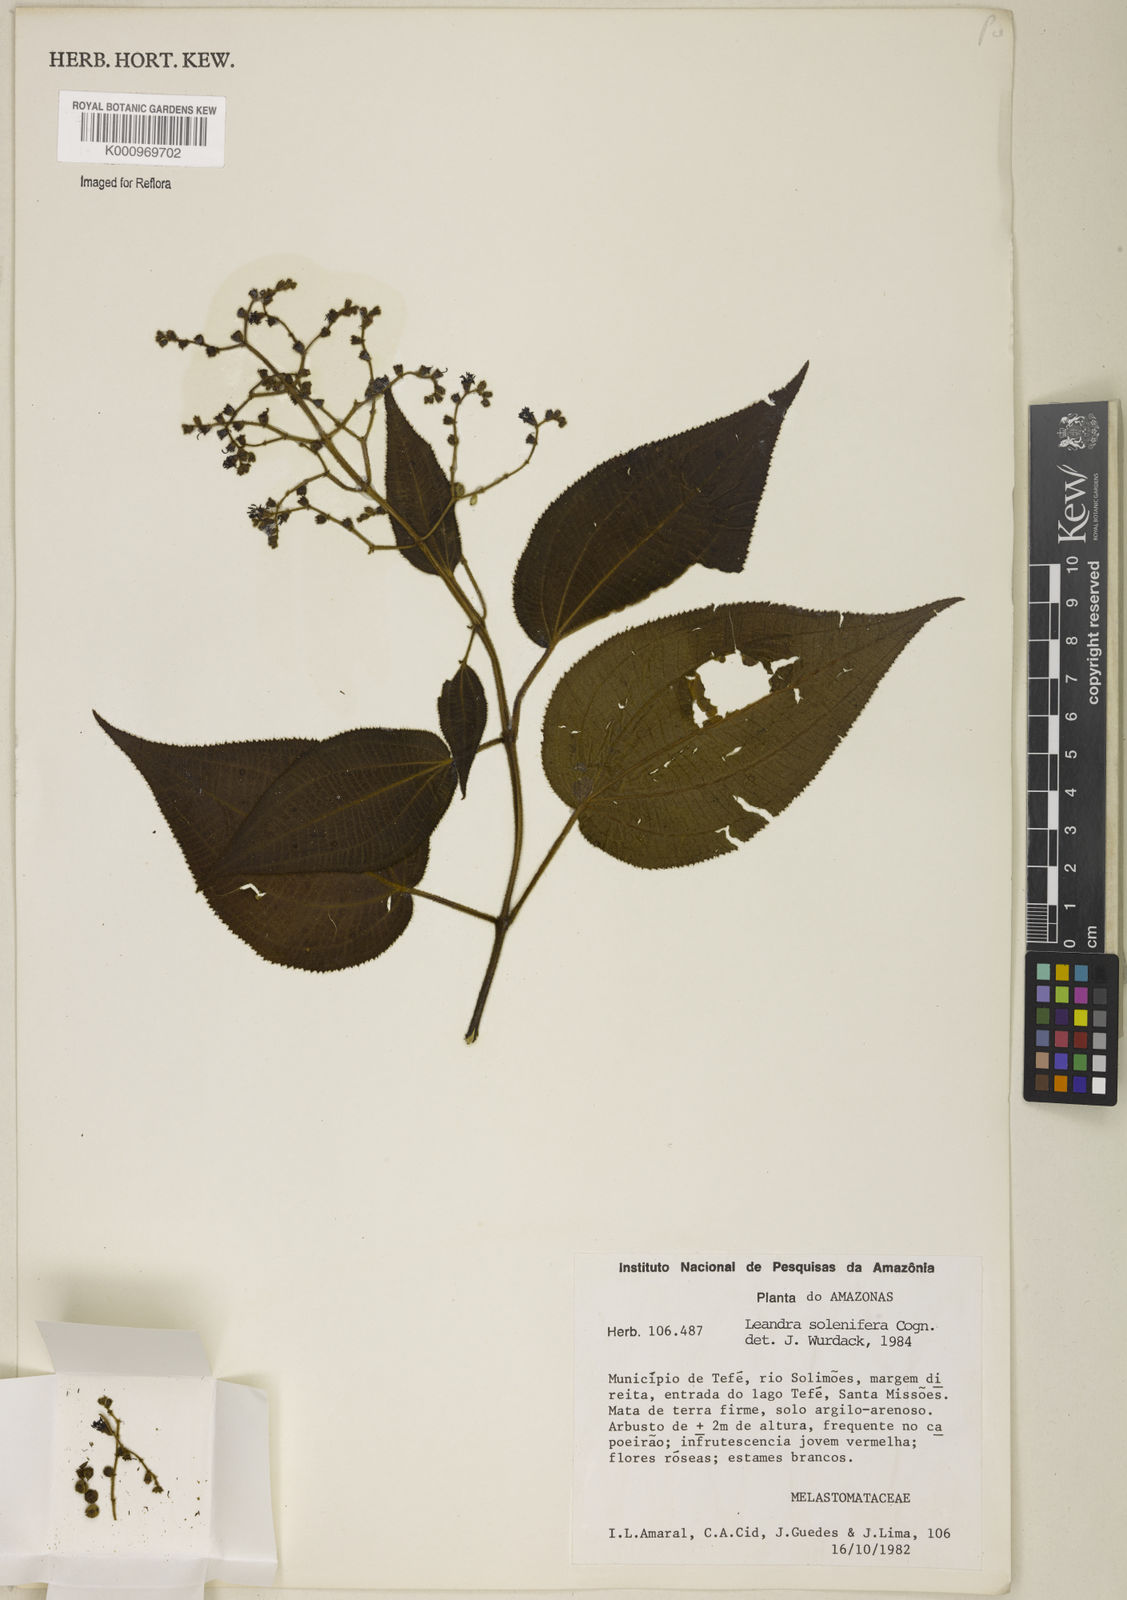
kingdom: Plantae
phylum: Tracheophyta
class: Magnoliopsida
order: Myrtales
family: Melastomataceae
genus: Miconia
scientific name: Miconia solenifera
